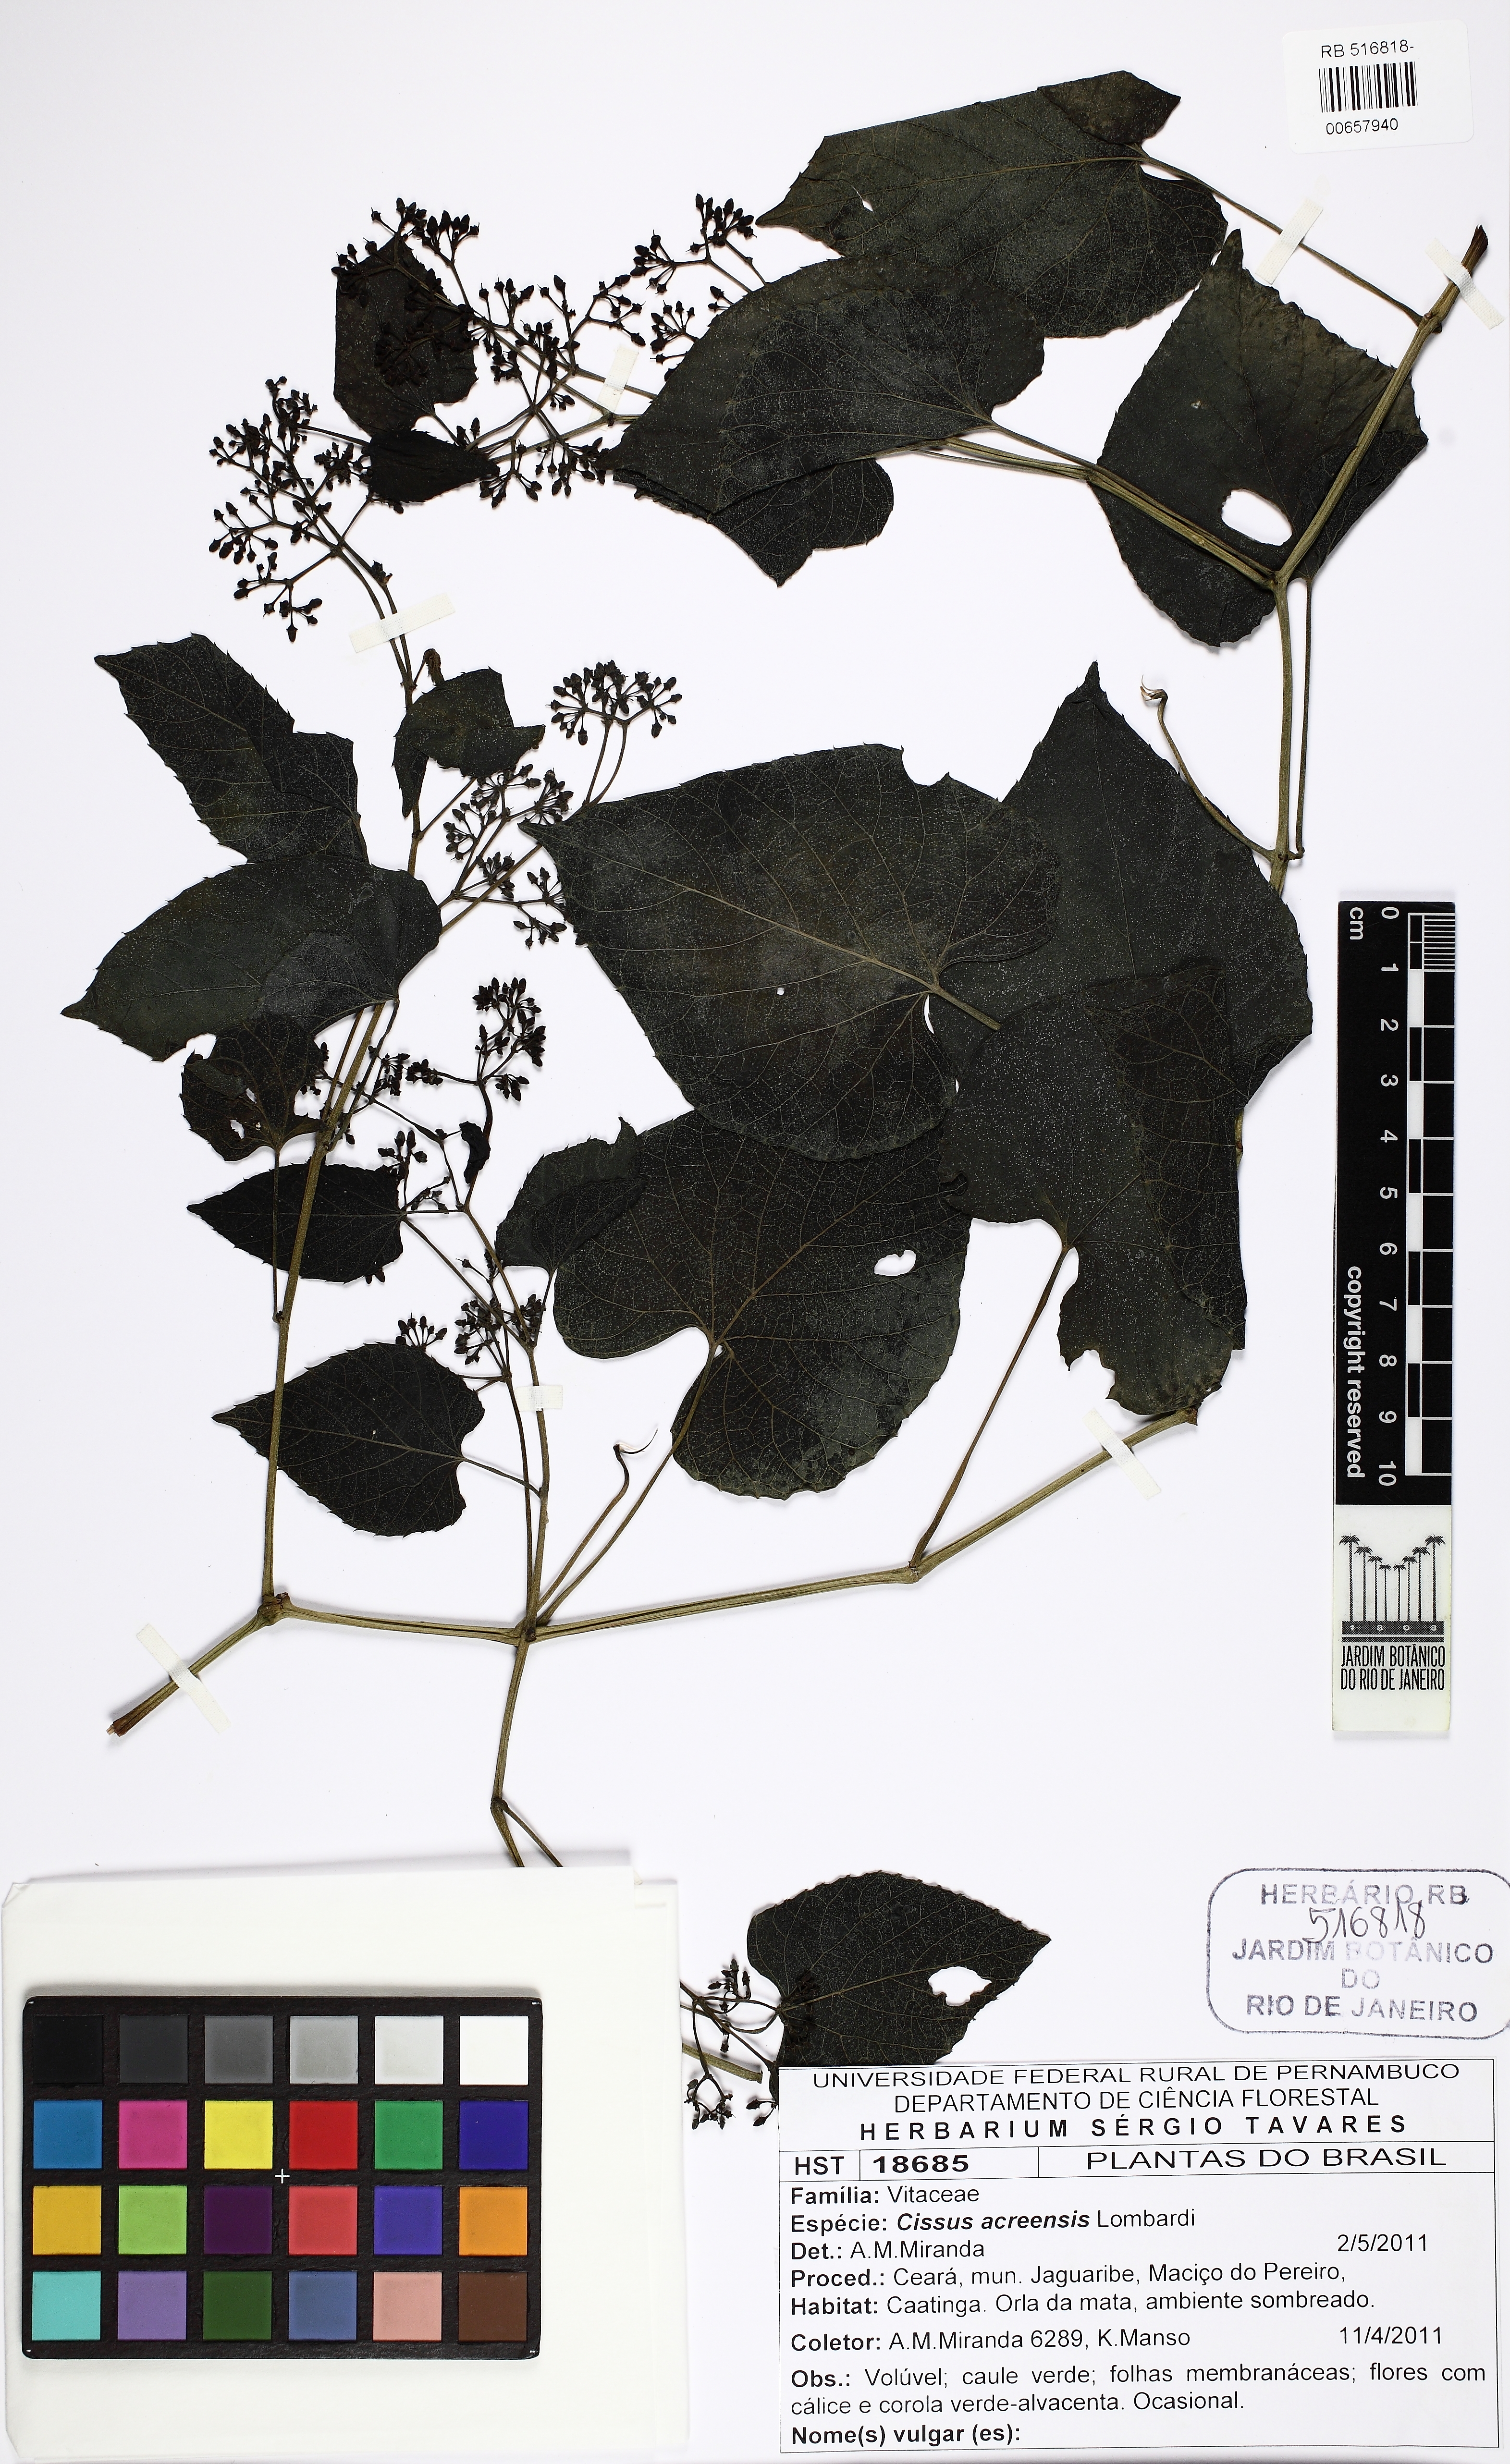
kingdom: Plantae
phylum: Tracheophyta
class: Magnoliopsida
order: Vitales
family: Vitaceae
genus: Cissus
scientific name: Cissus acreensis
